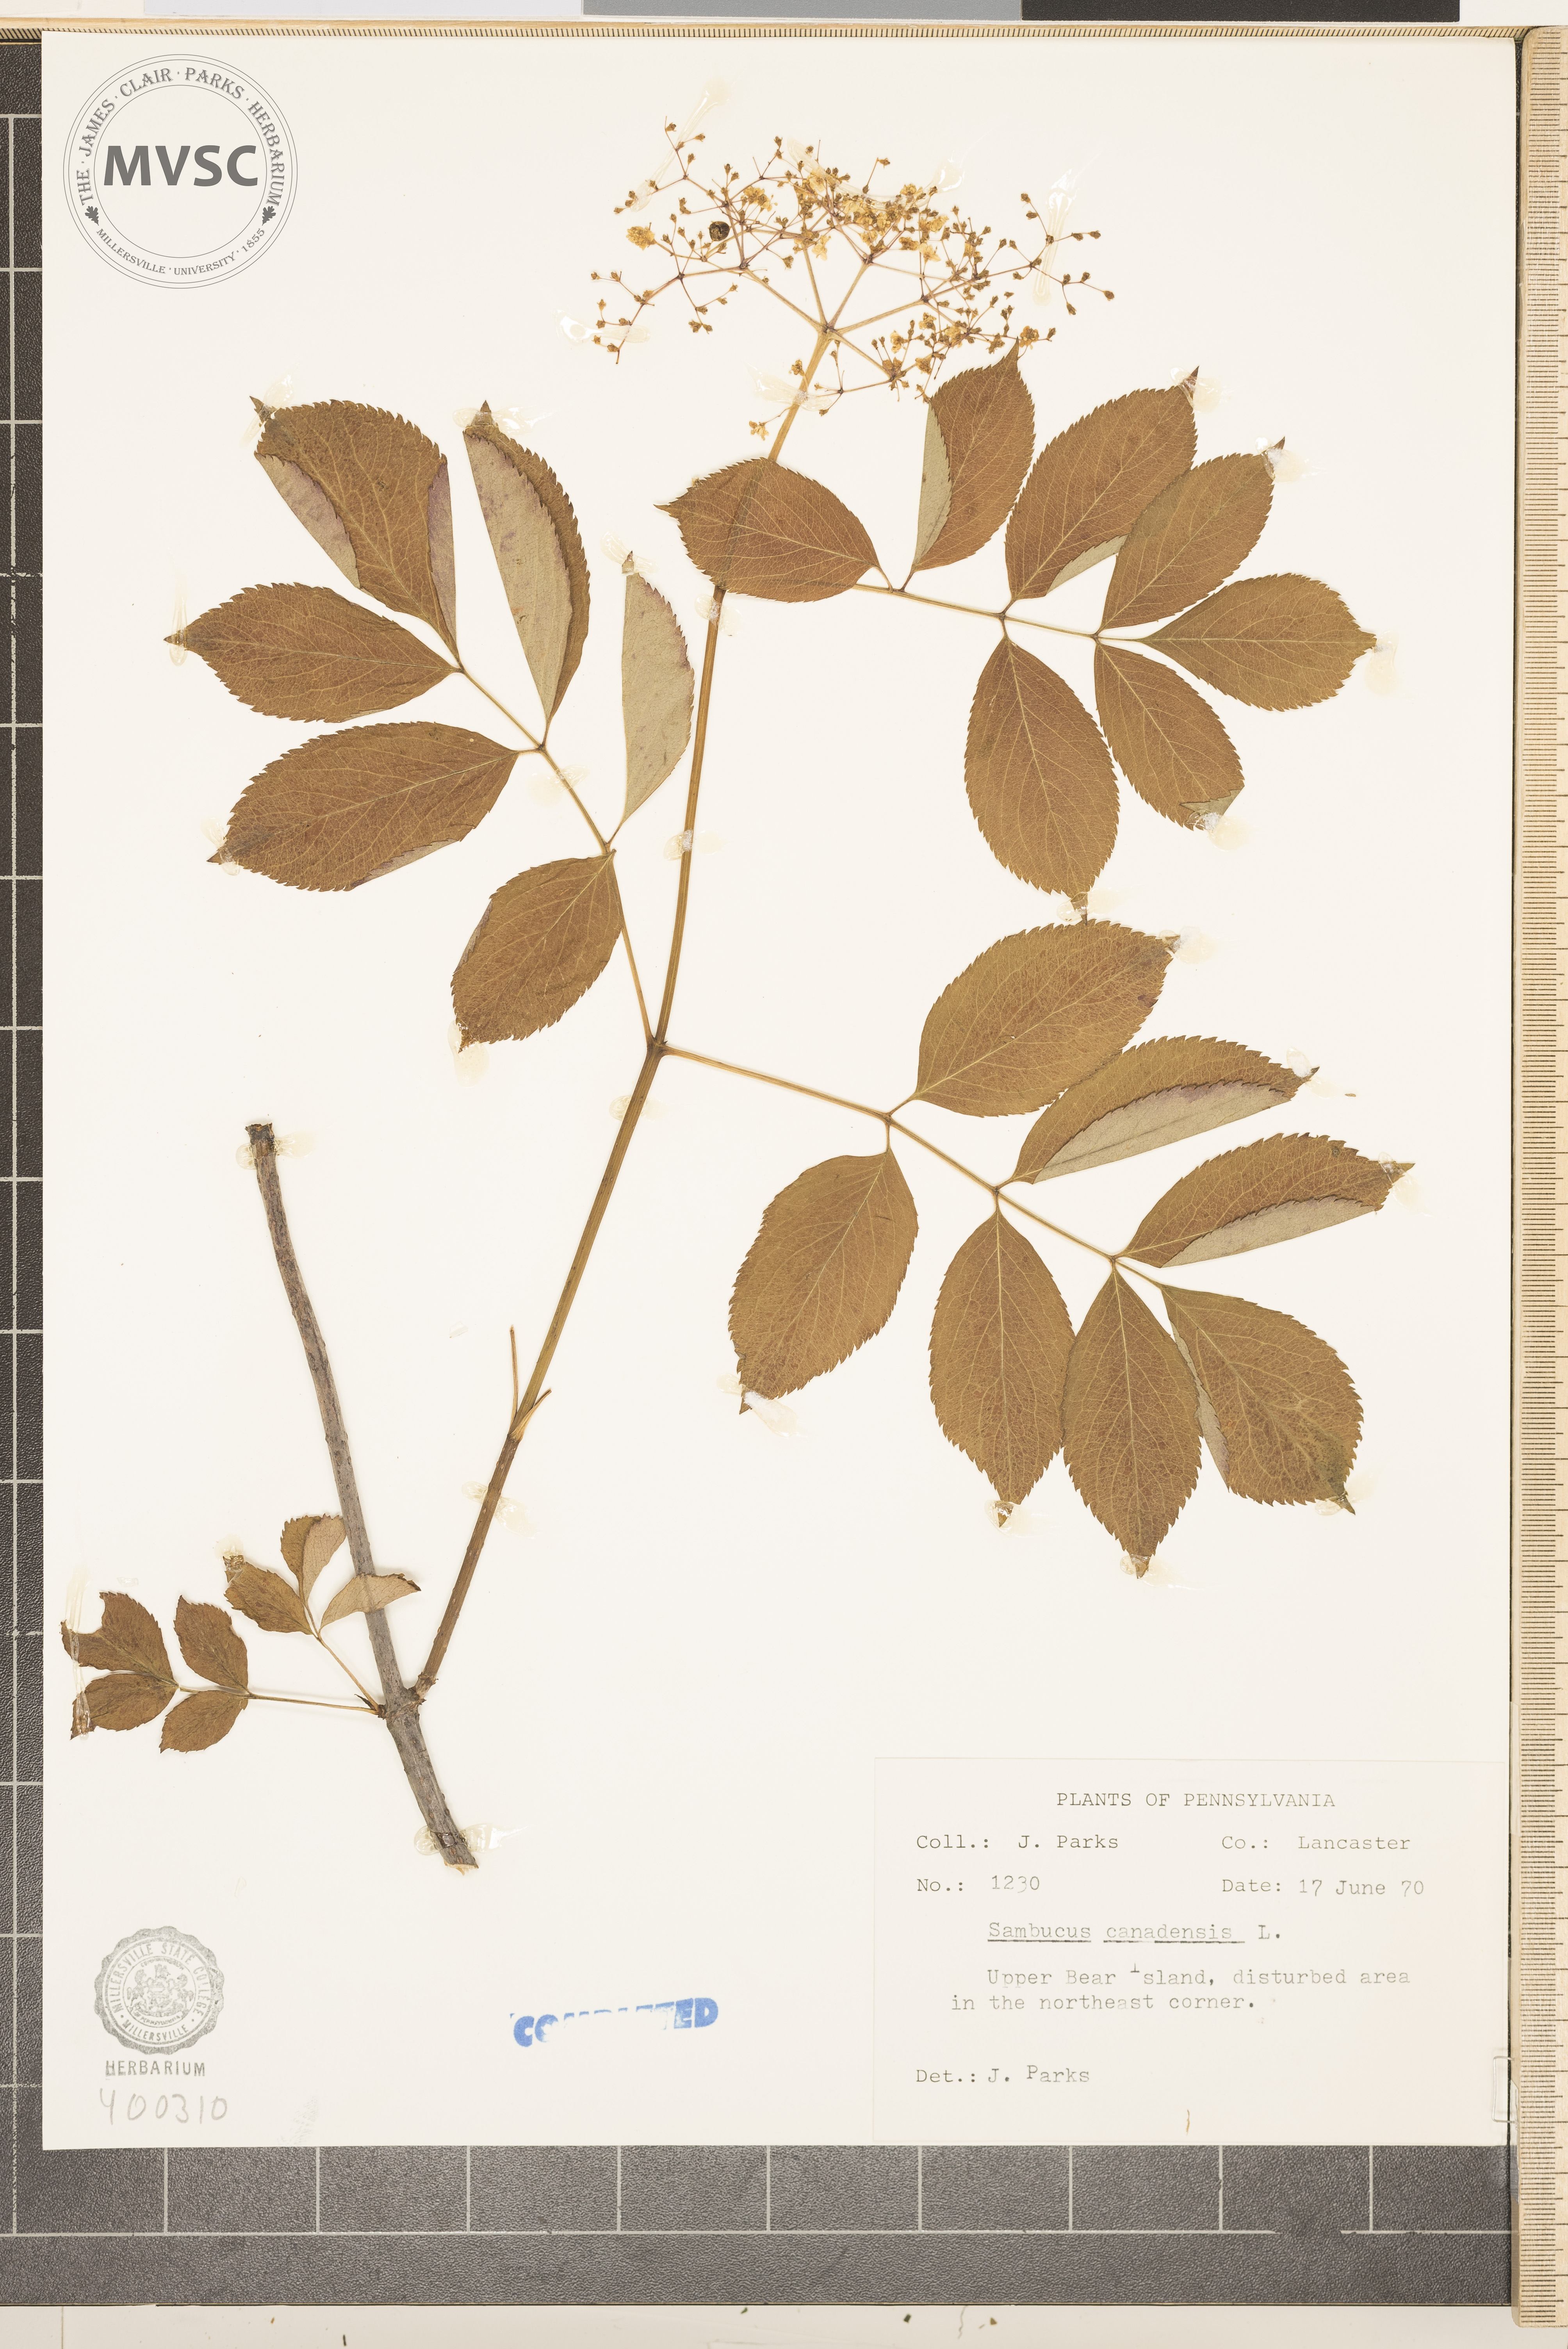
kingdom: Plantae
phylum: Tracheophyta
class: Magnoliopsida
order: Dipsacales
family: Viburnaceae
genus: Sambucus
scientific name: Sambucus canadensis
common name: elderberry
